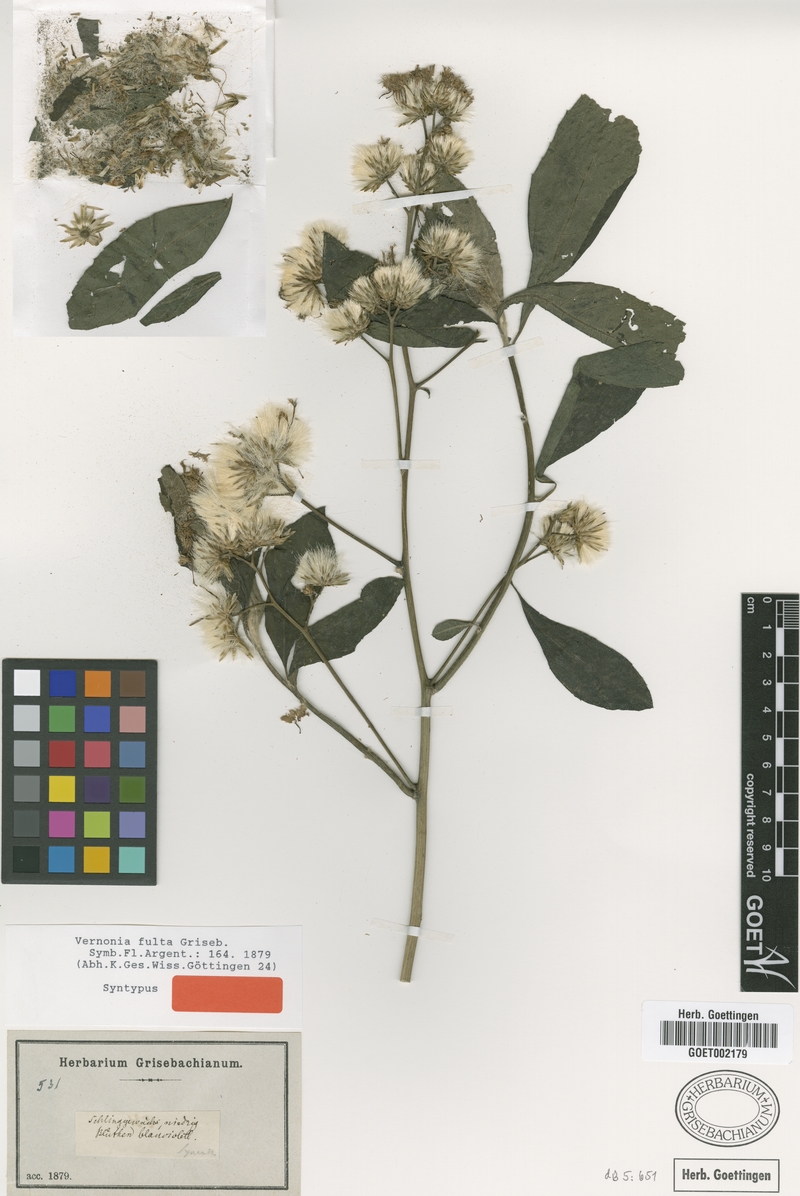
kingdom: Plantae
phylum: Tracheophyta
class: Magnoliopsida
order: Asterales
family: Asteraceae
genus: Quechualia
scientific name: Quechualia fulta
